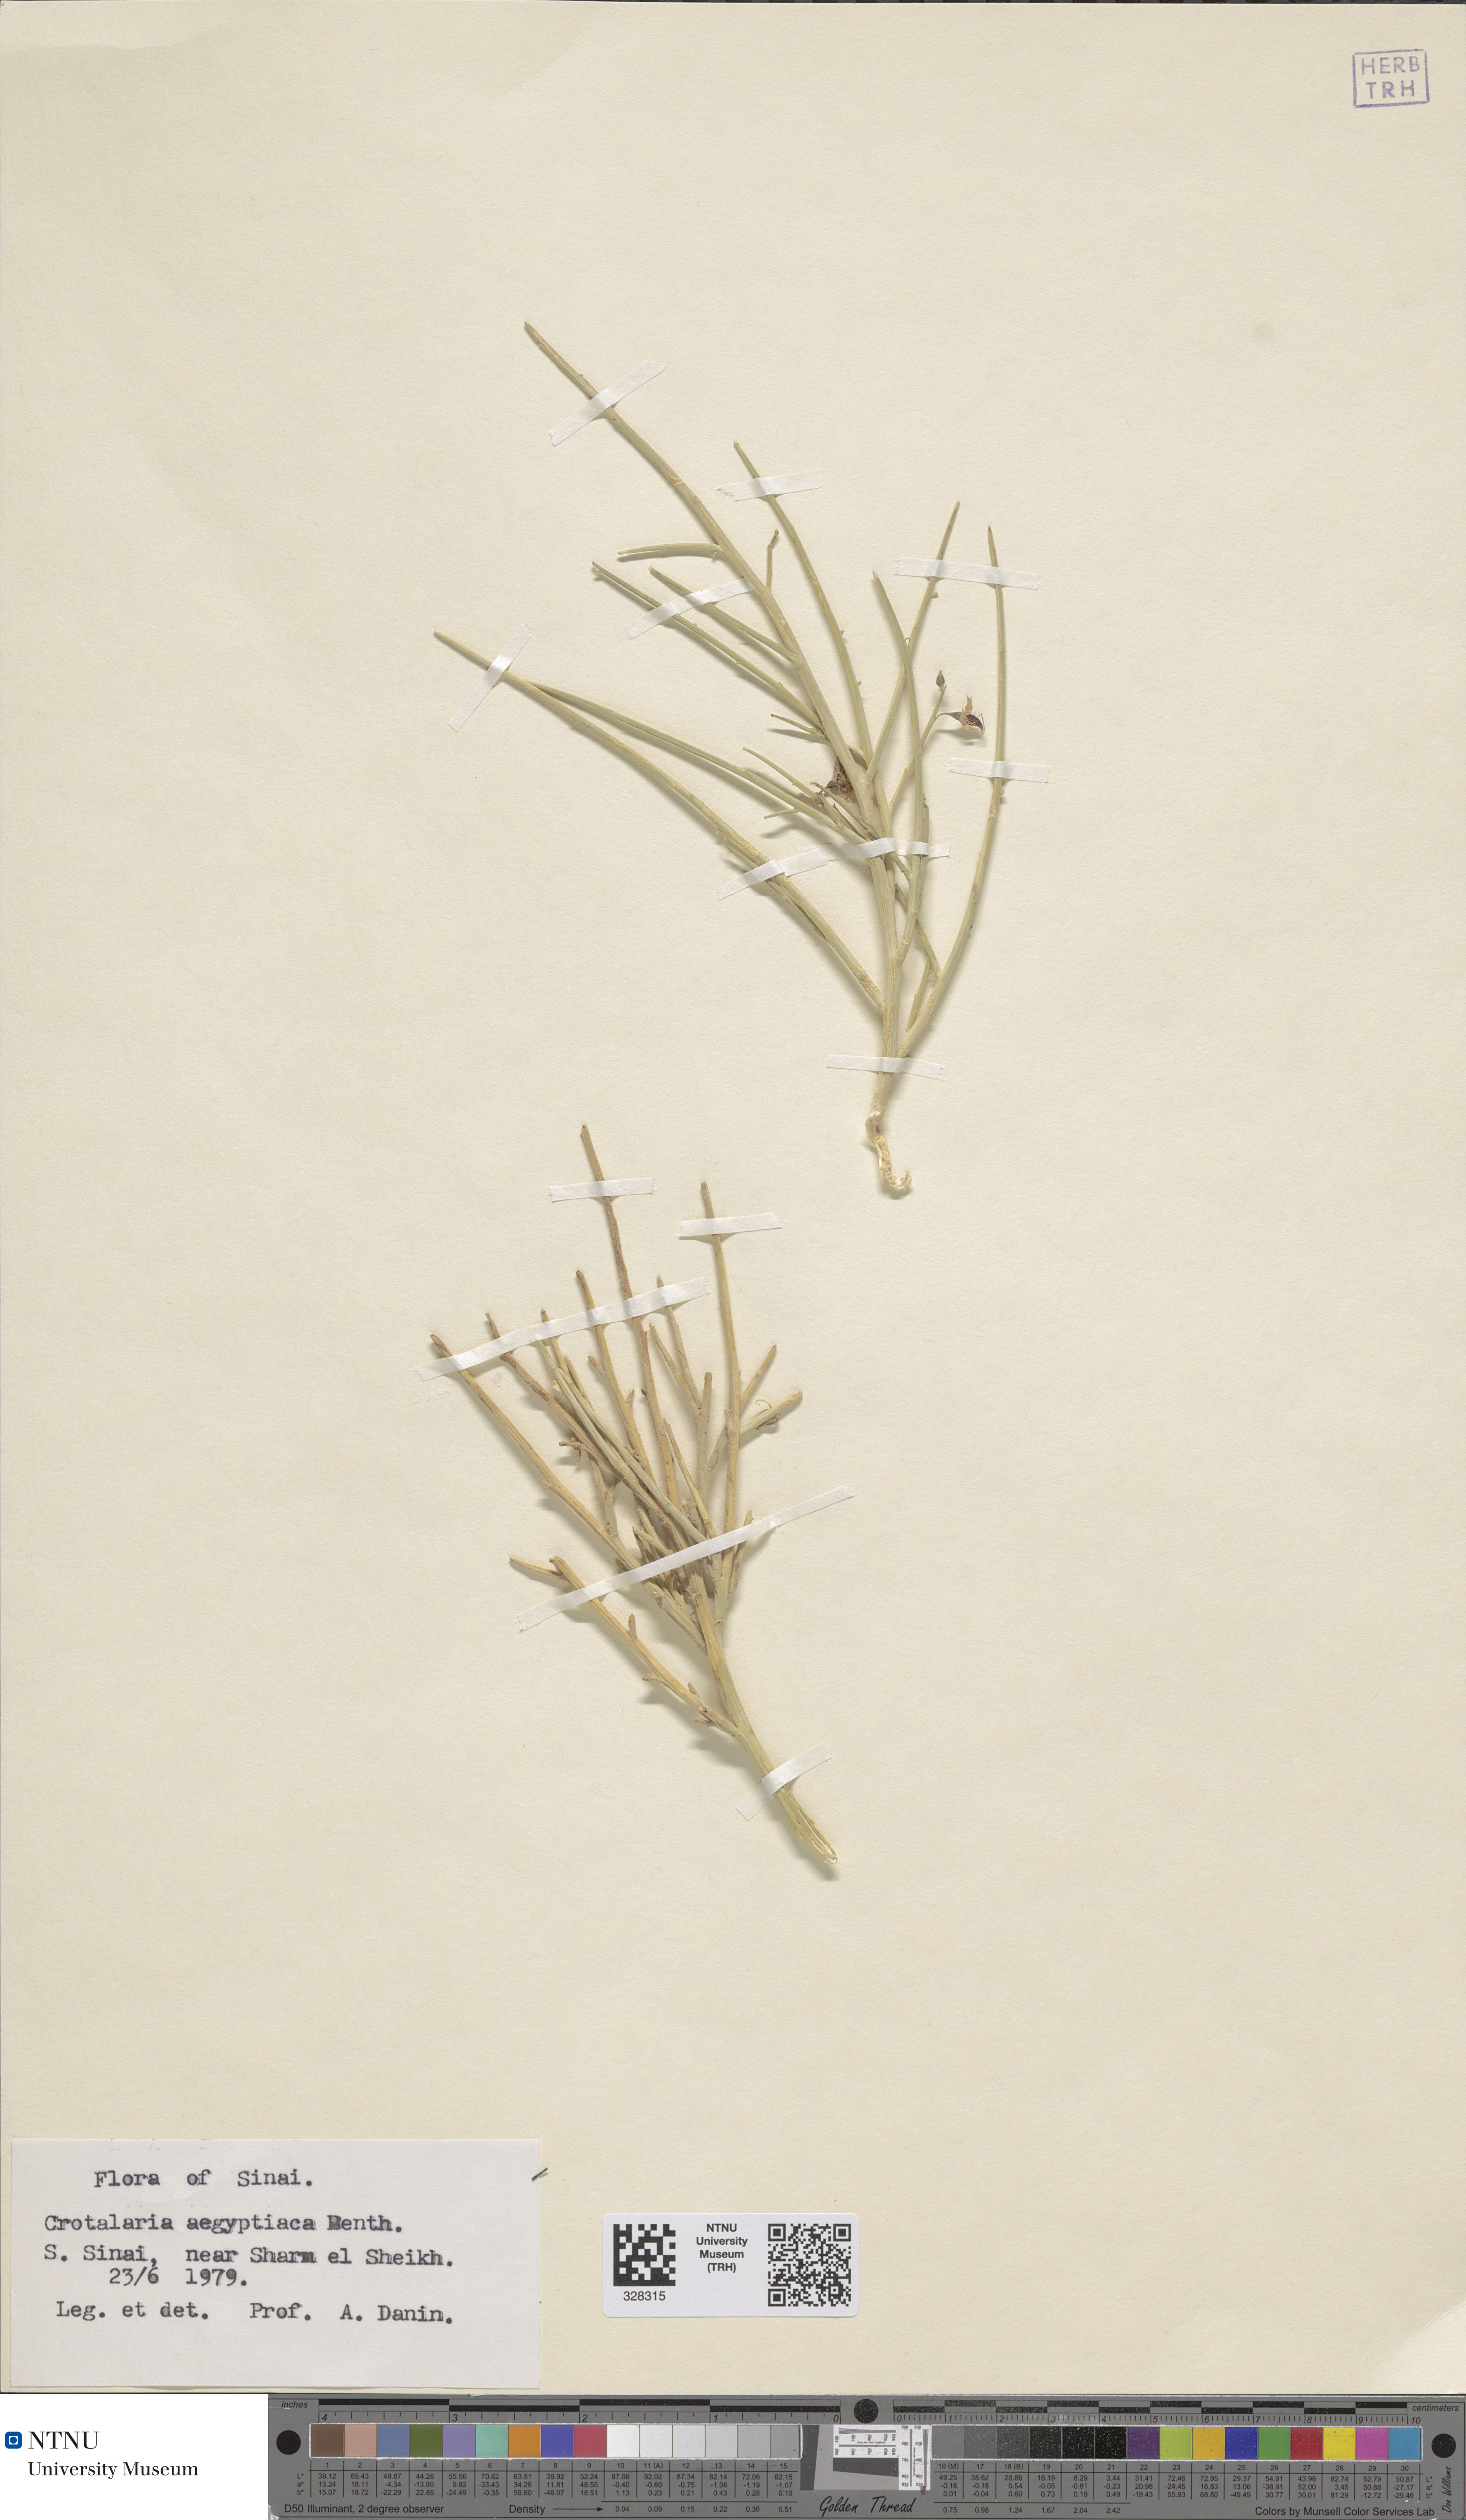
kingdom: Plantae
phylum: Tracheophyta
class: Magnoliopsida
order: Fabales
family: Fabaceae
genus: Crotalaria
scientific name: Crotalaria aegyptiaca
